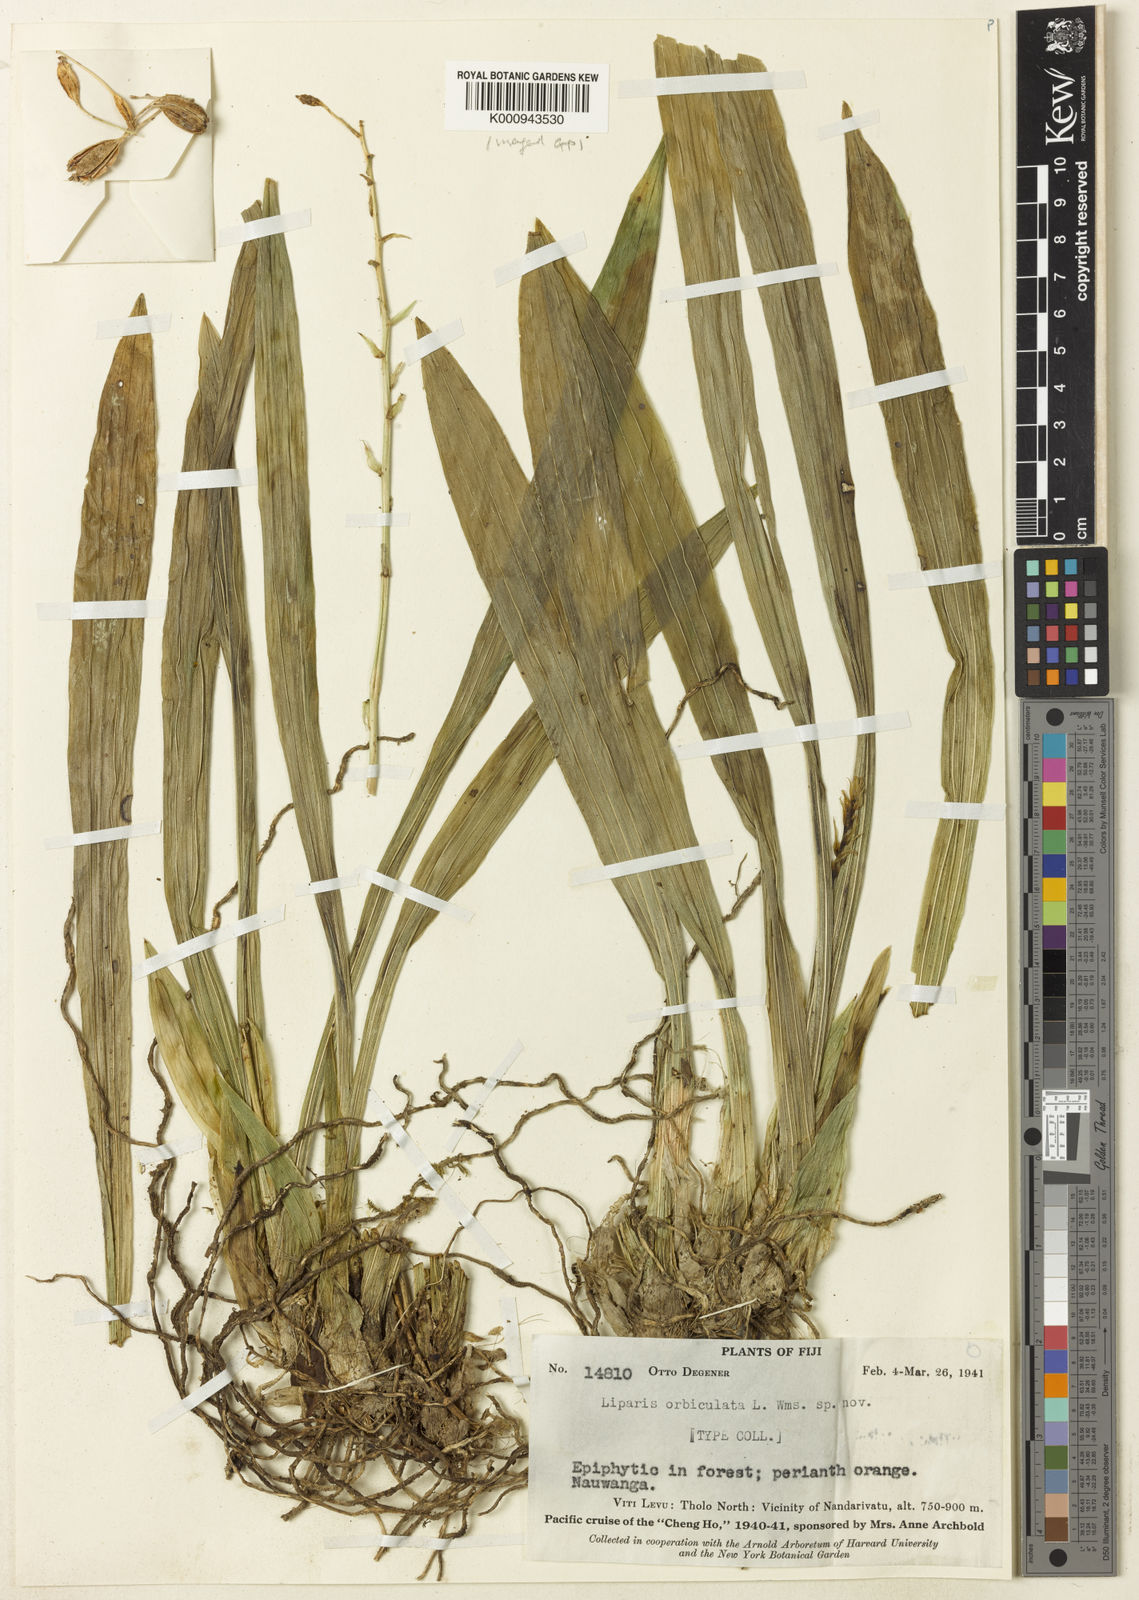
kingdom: Plantae
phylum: Tracheophyta
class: Liliopsida
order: Asparagales
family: Orchidaceae
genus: Liparis
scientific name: Liparis orbiculata
